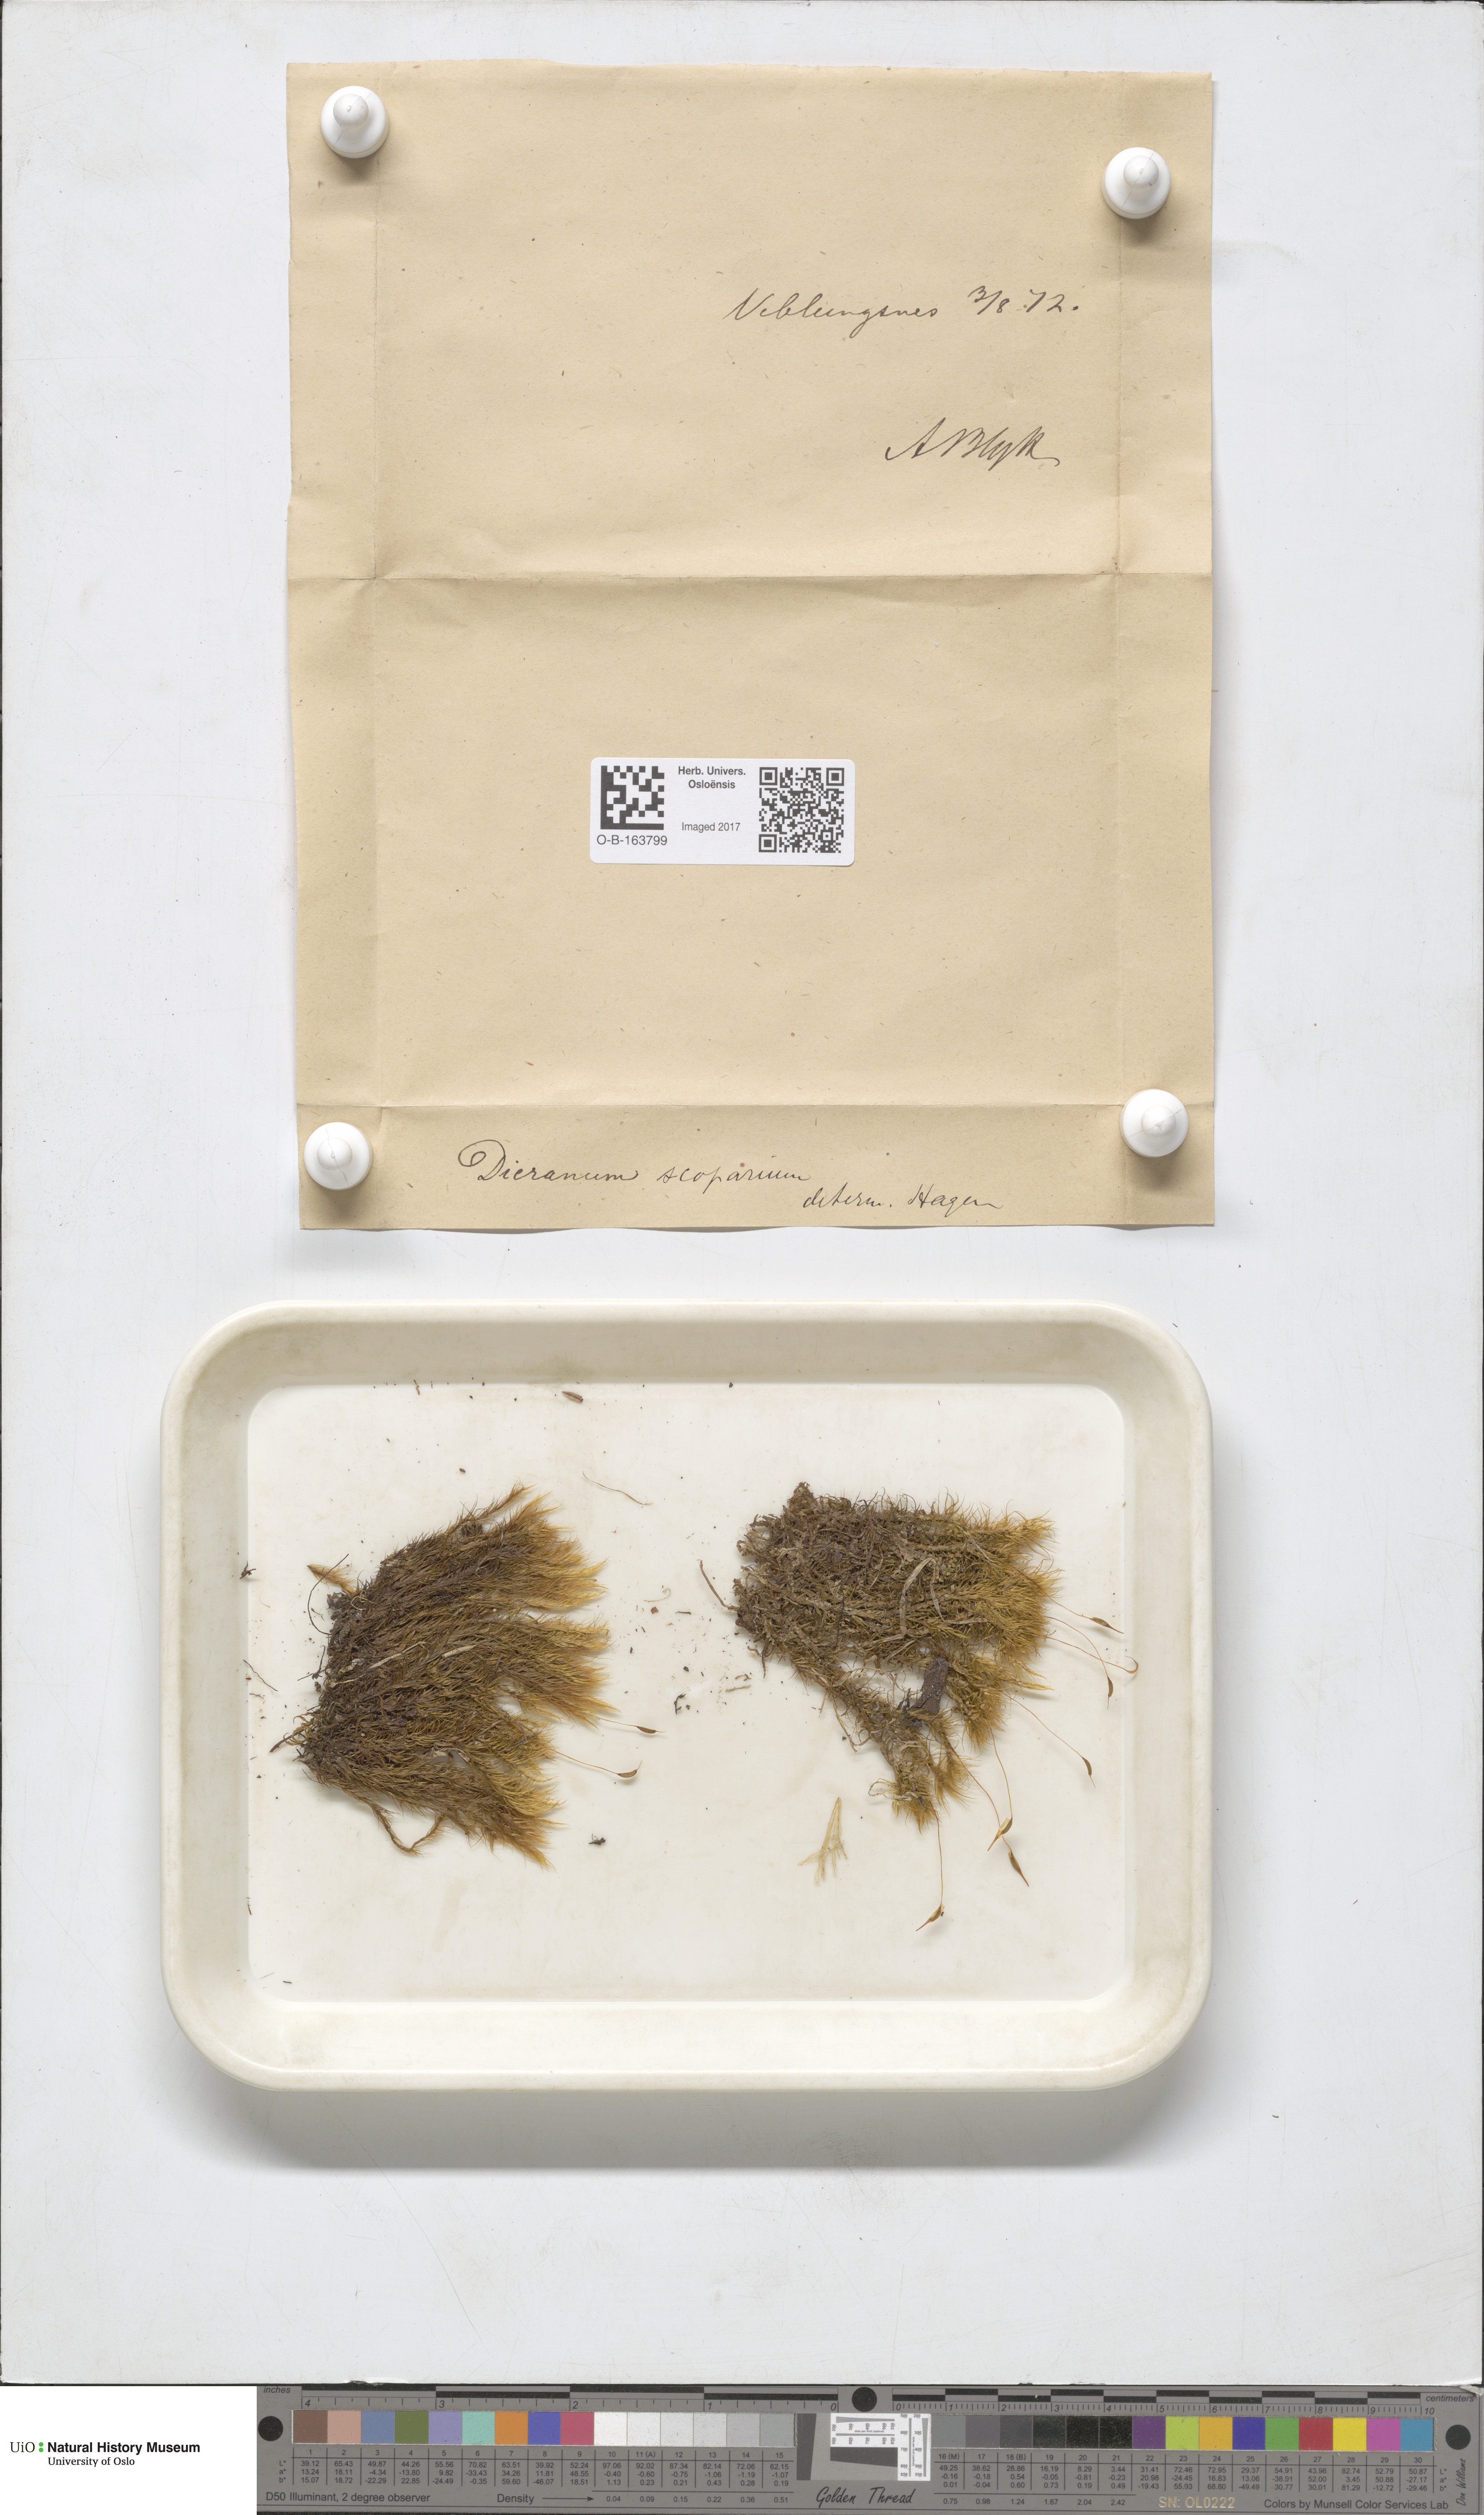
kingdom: Plantae
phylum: Bryophyta
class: Bryopsida
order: Dicranales
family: Dicranaceae
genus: Dicranum
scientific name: Dicranum scoparium
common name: Broom fork-moss
